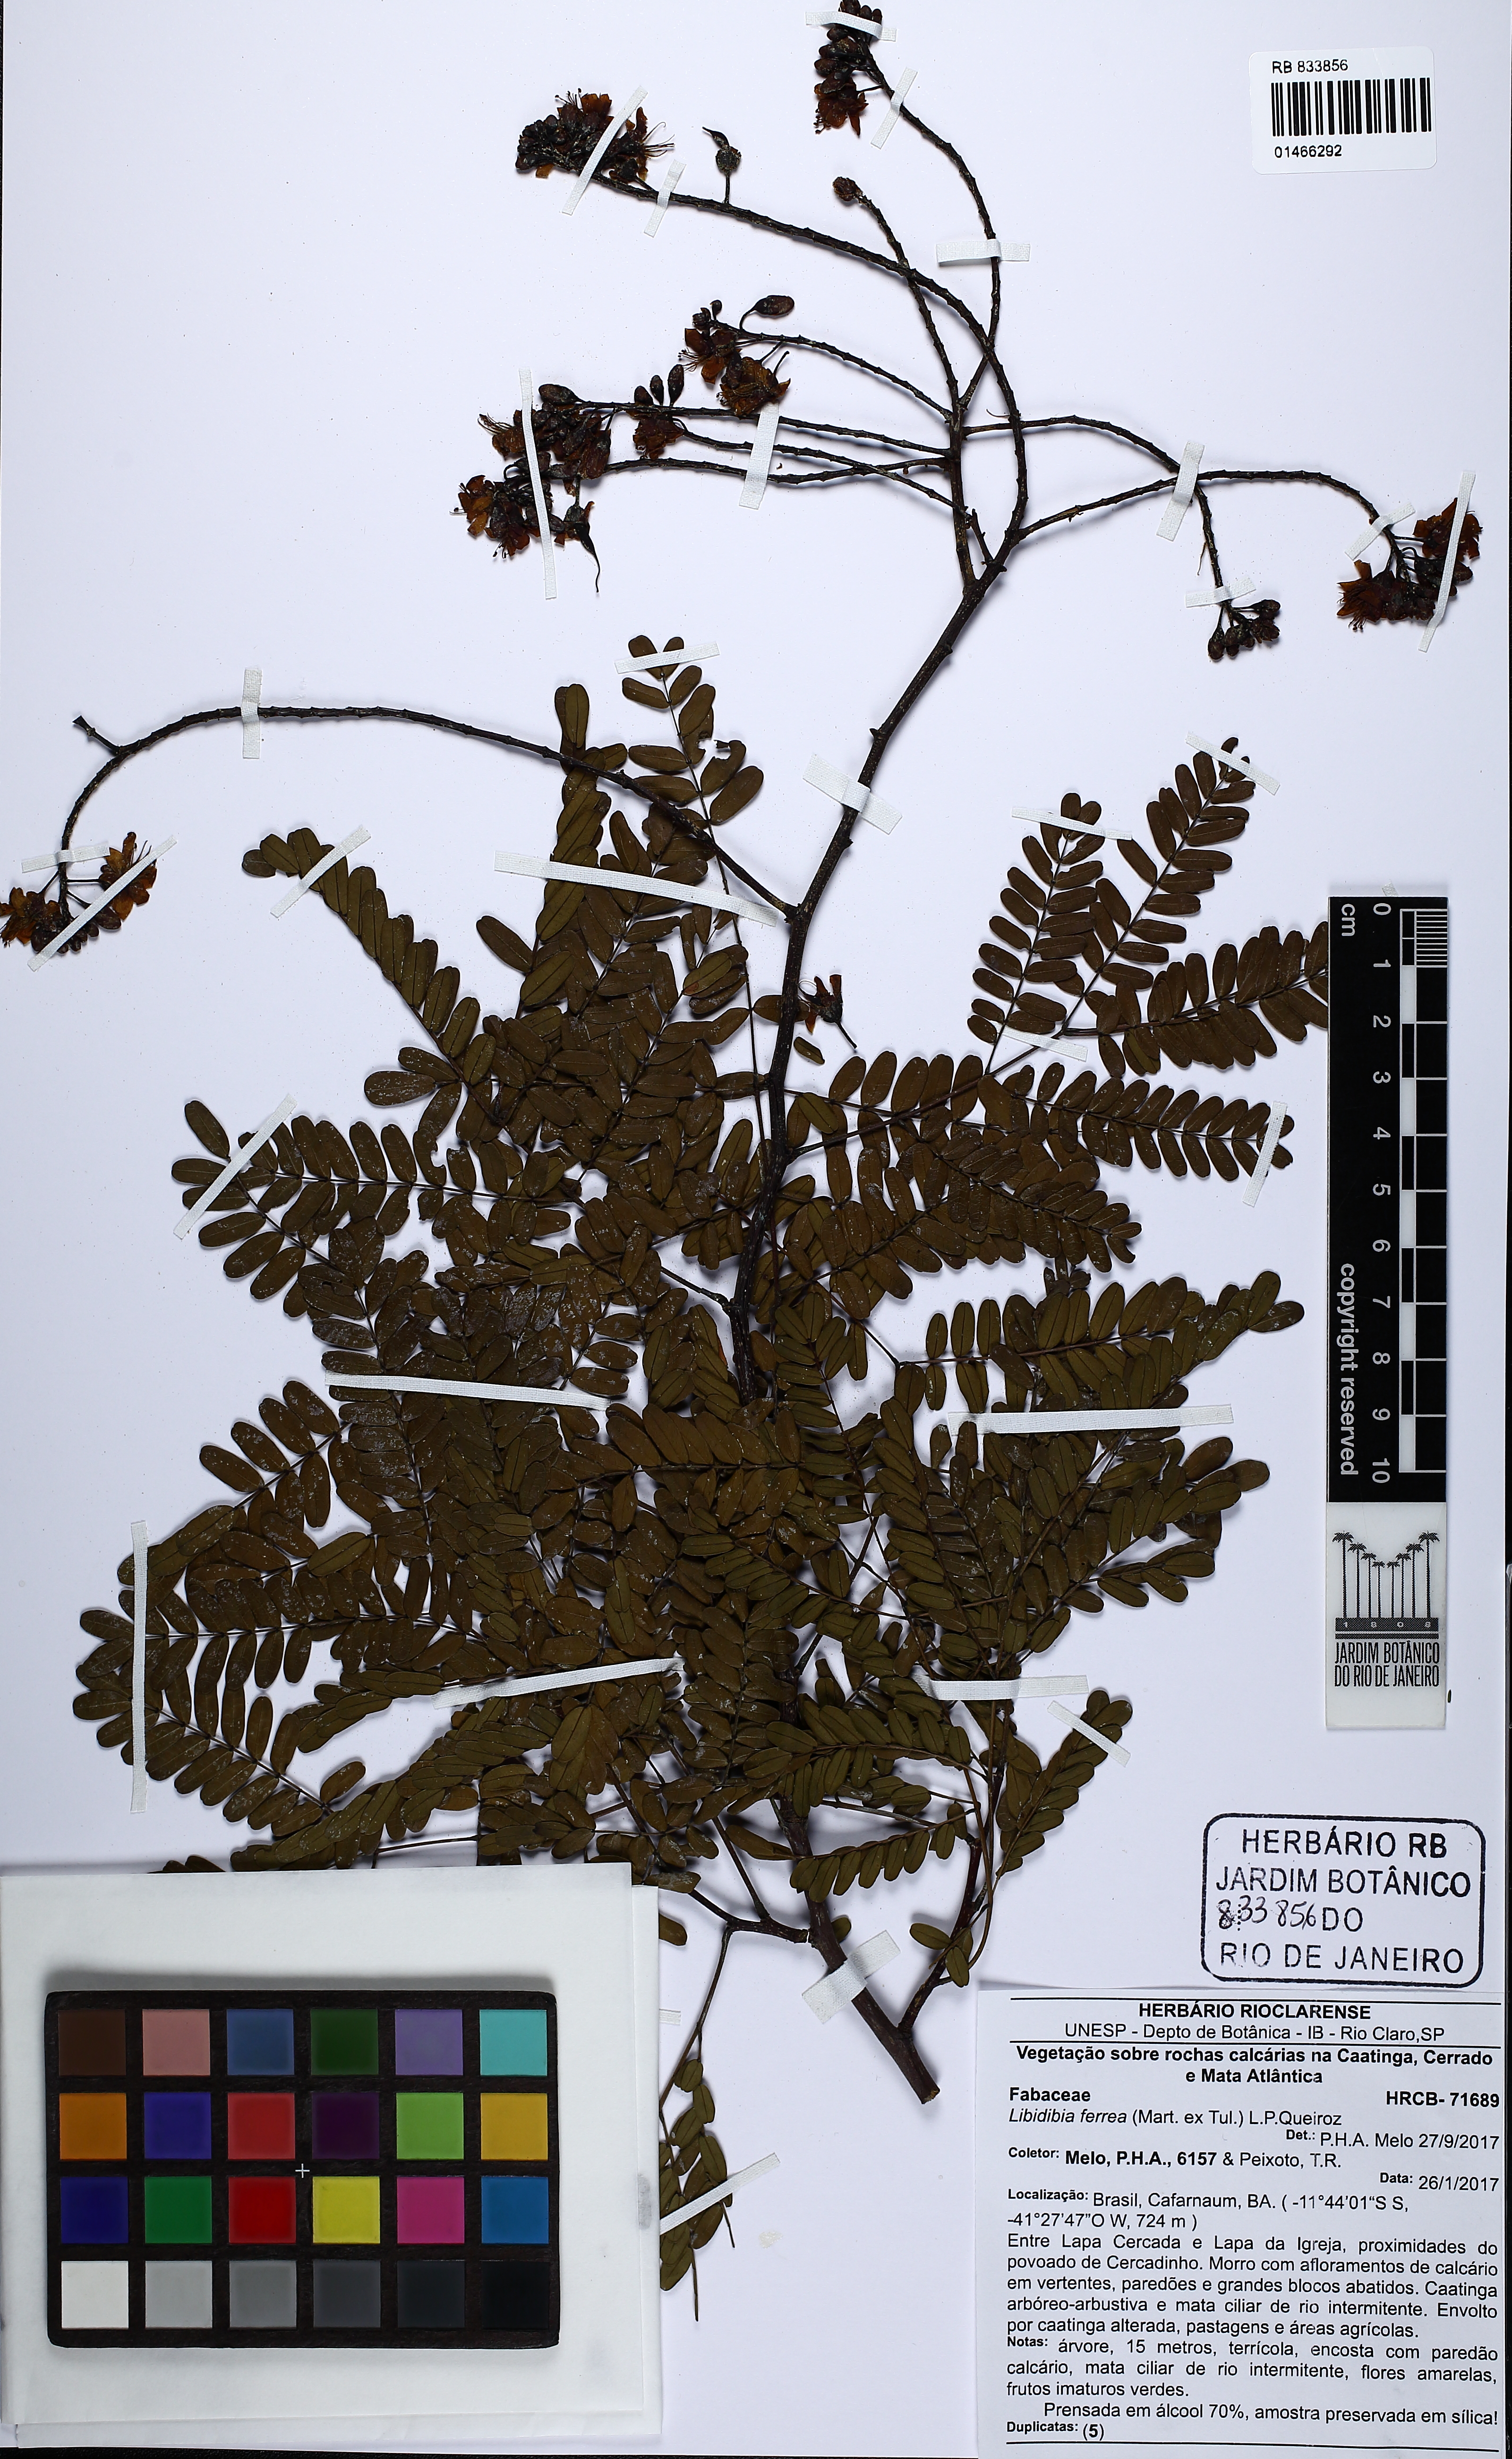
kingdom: Plantae
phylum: Tracheophyta
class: Magnoliopsida
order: Fabales
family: Fabaceae
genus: Libidibia
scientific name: Libidibia ferrea
